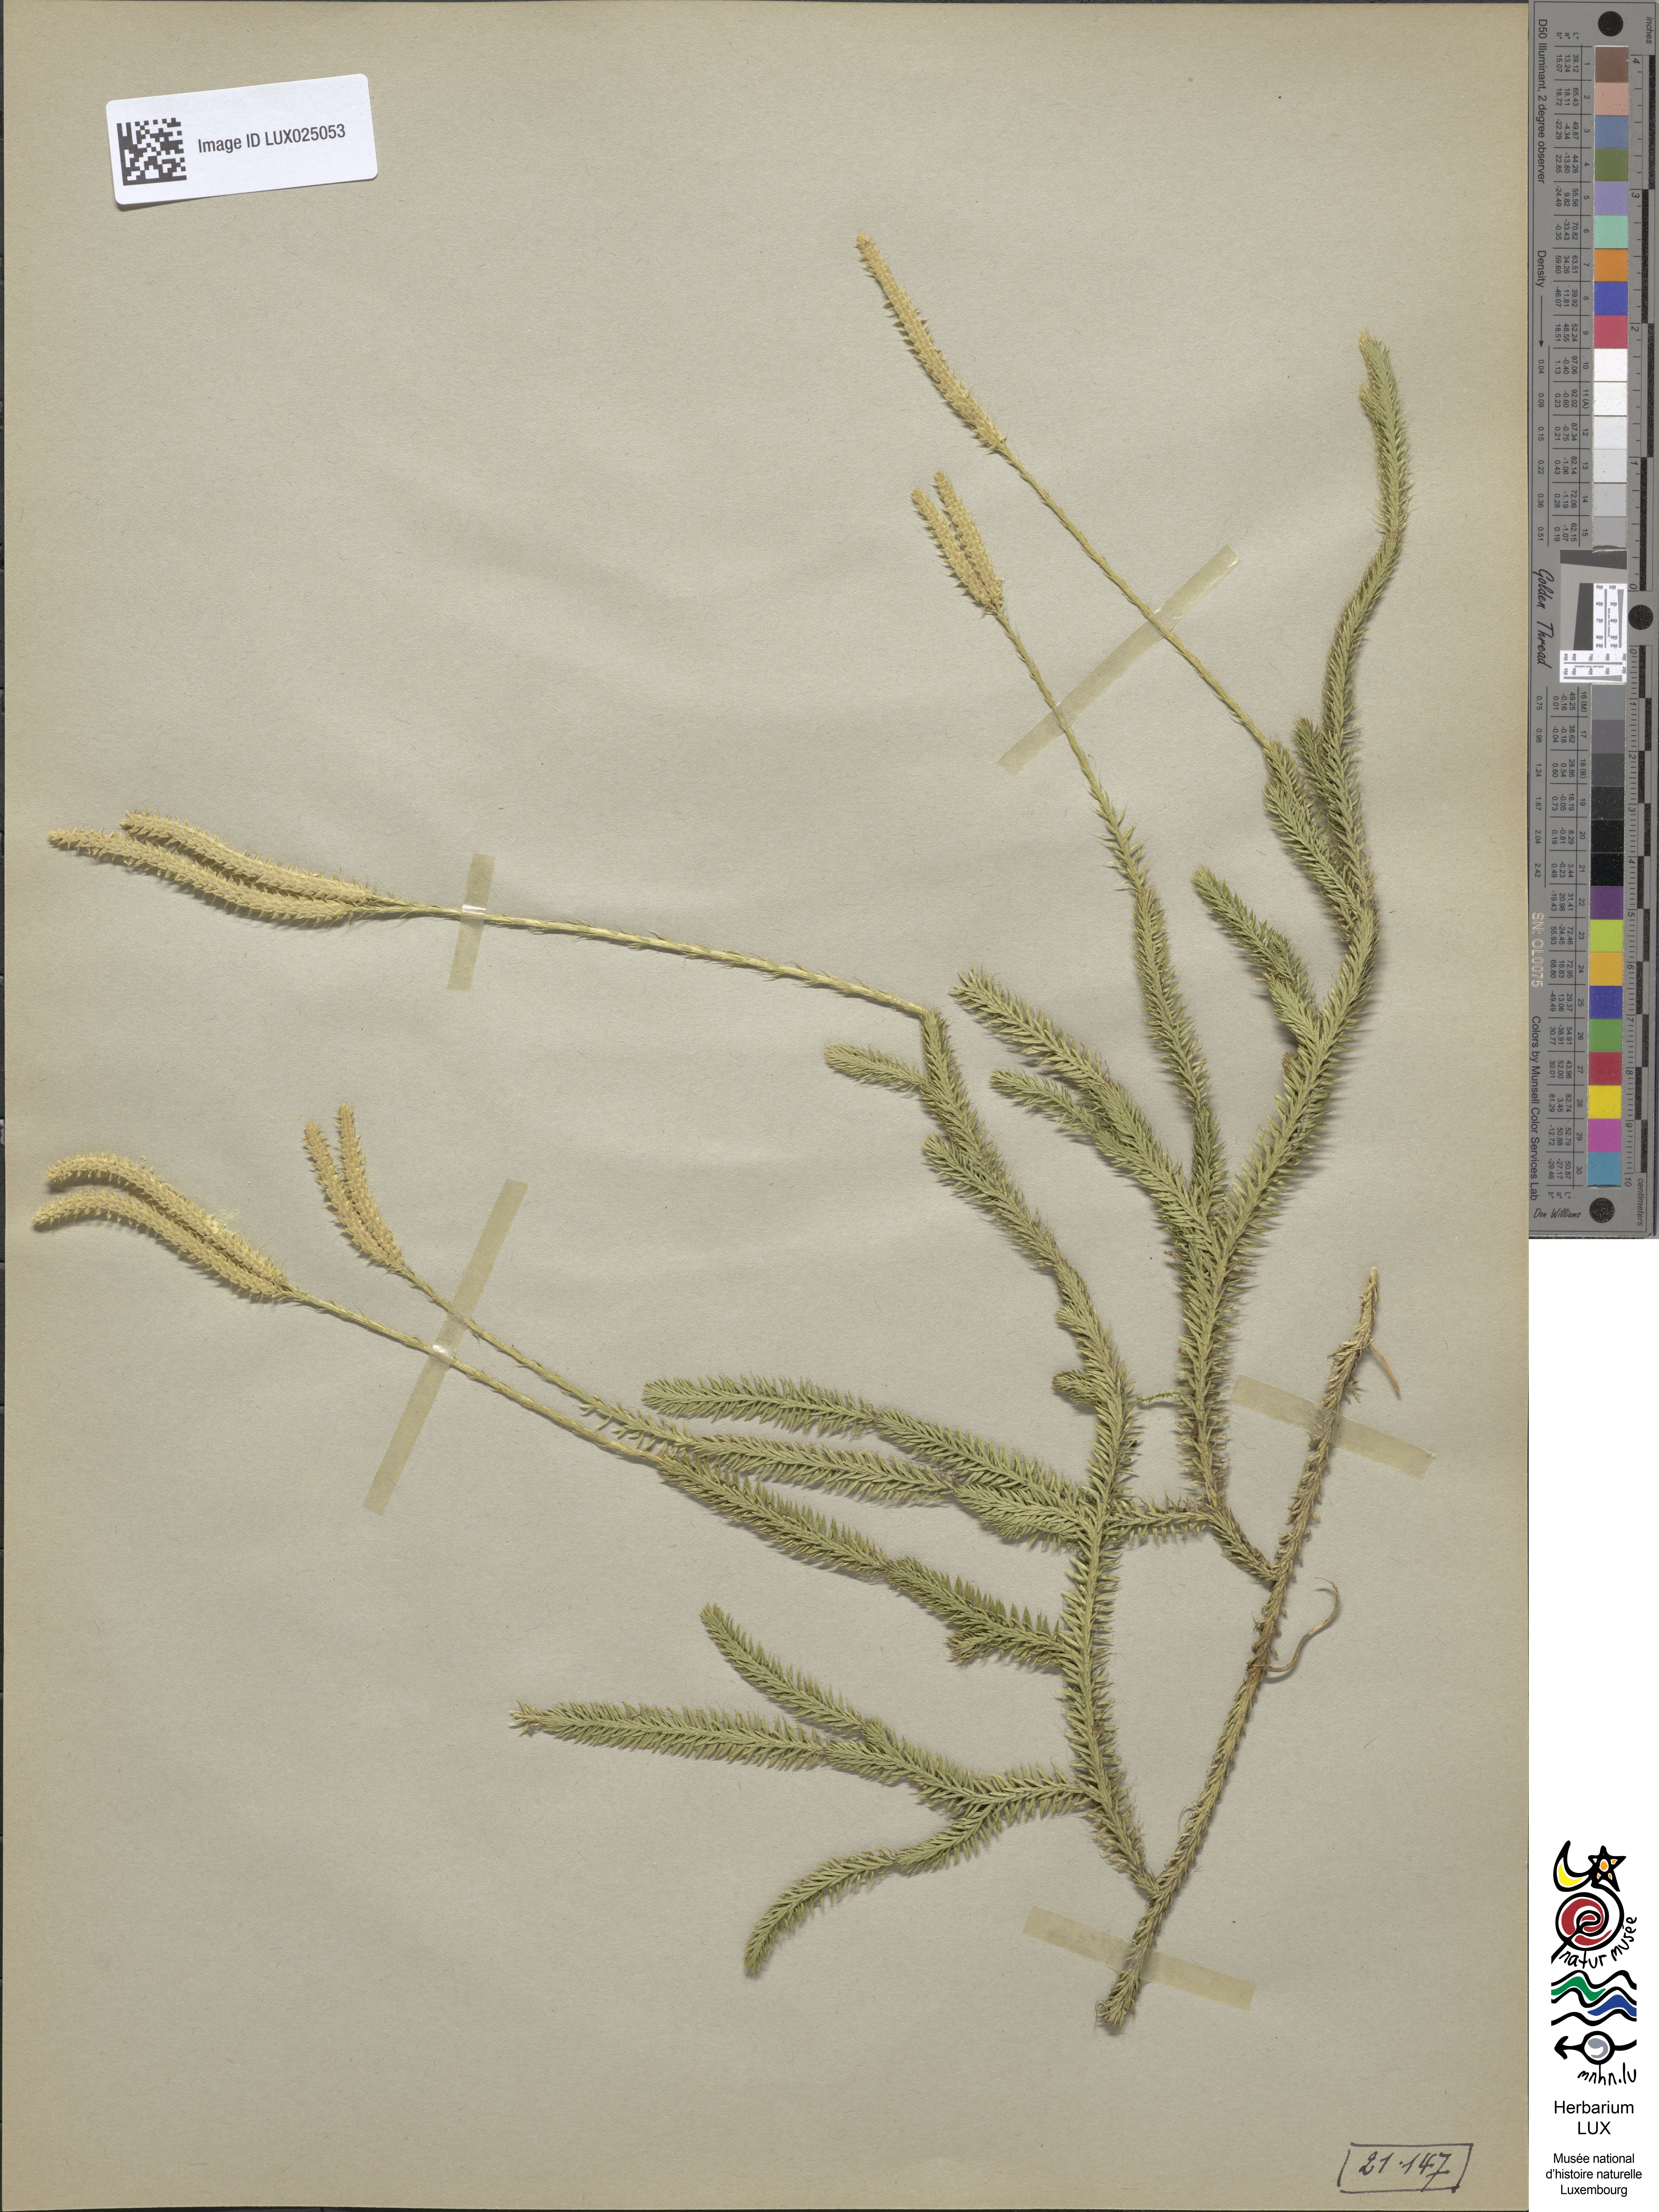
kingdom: Plantae
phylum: Tracheophyta
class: Lycopodiopsida
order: Lycopodiales
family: Lycopodiaceae
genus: Lycopodium
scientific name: Lycopodium clavatum
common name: Stag's-horn clubmoss
